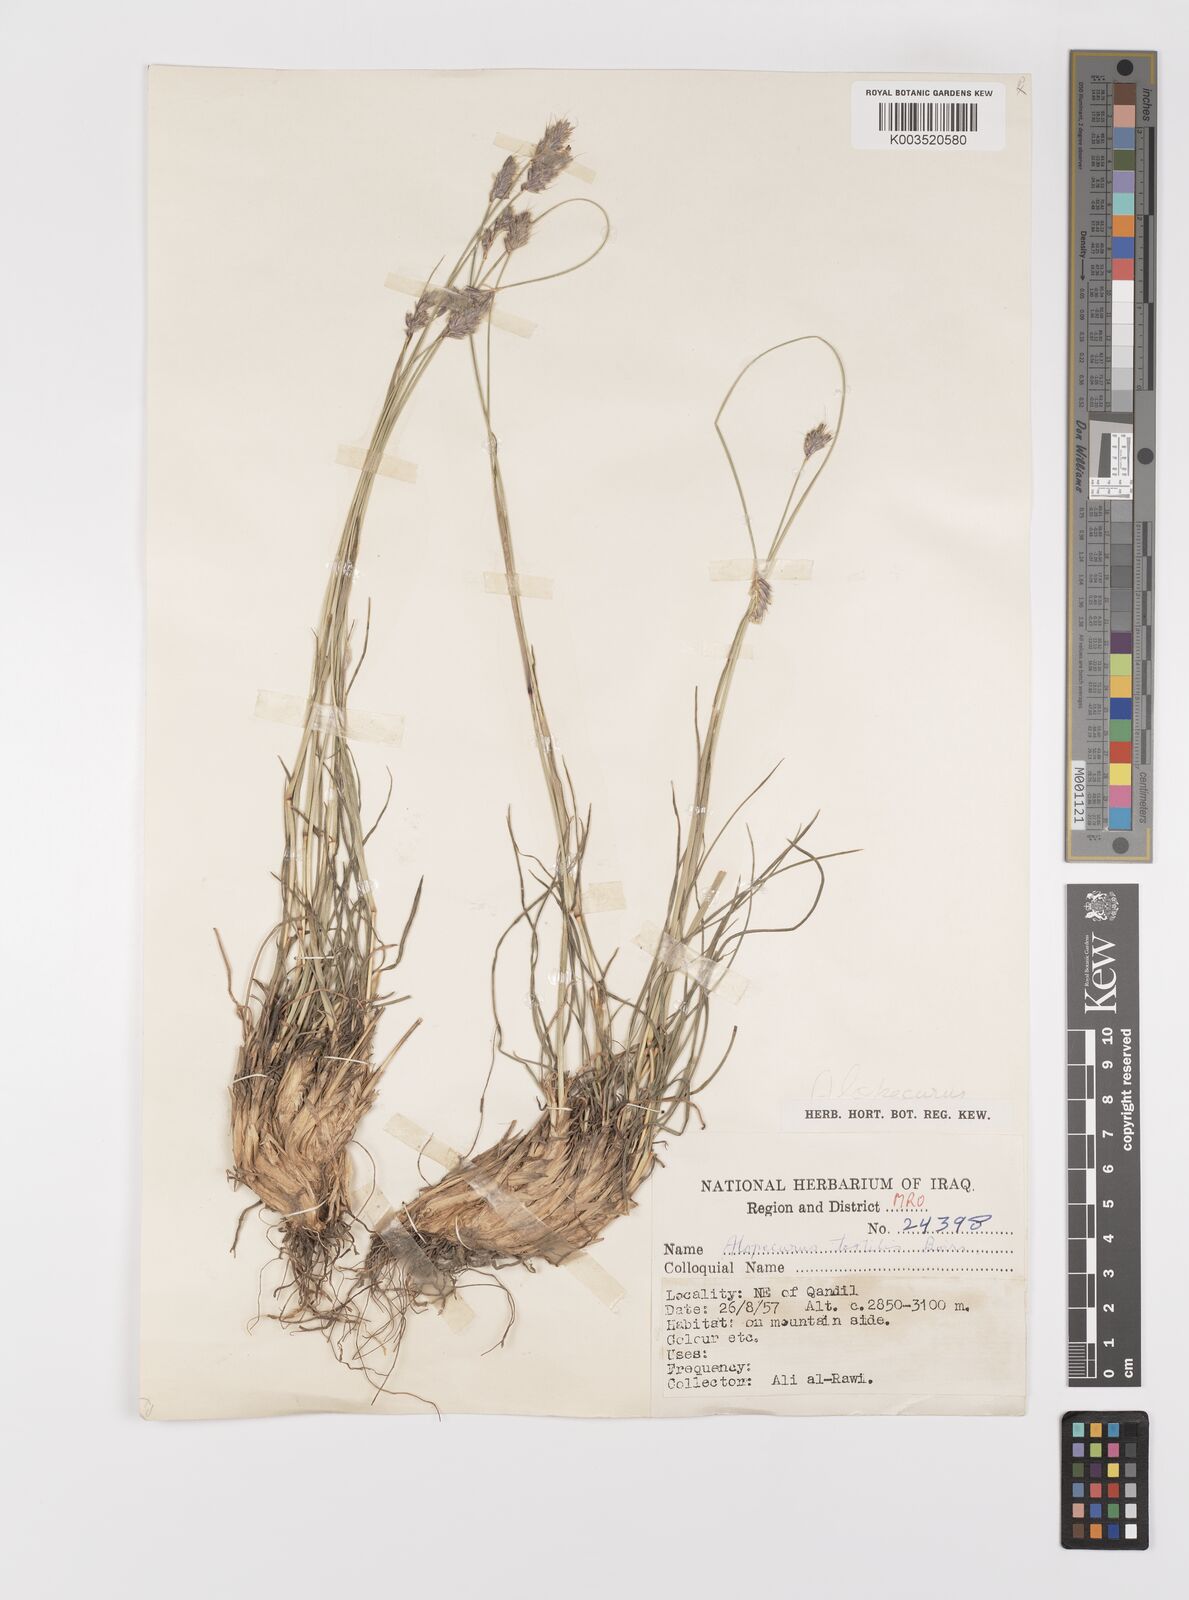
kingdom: Plantae
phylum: Tracheophyta
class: Liliopsida
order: Poales
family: Poaceae
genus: Alopecurus
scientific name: Alopecurus textilis
